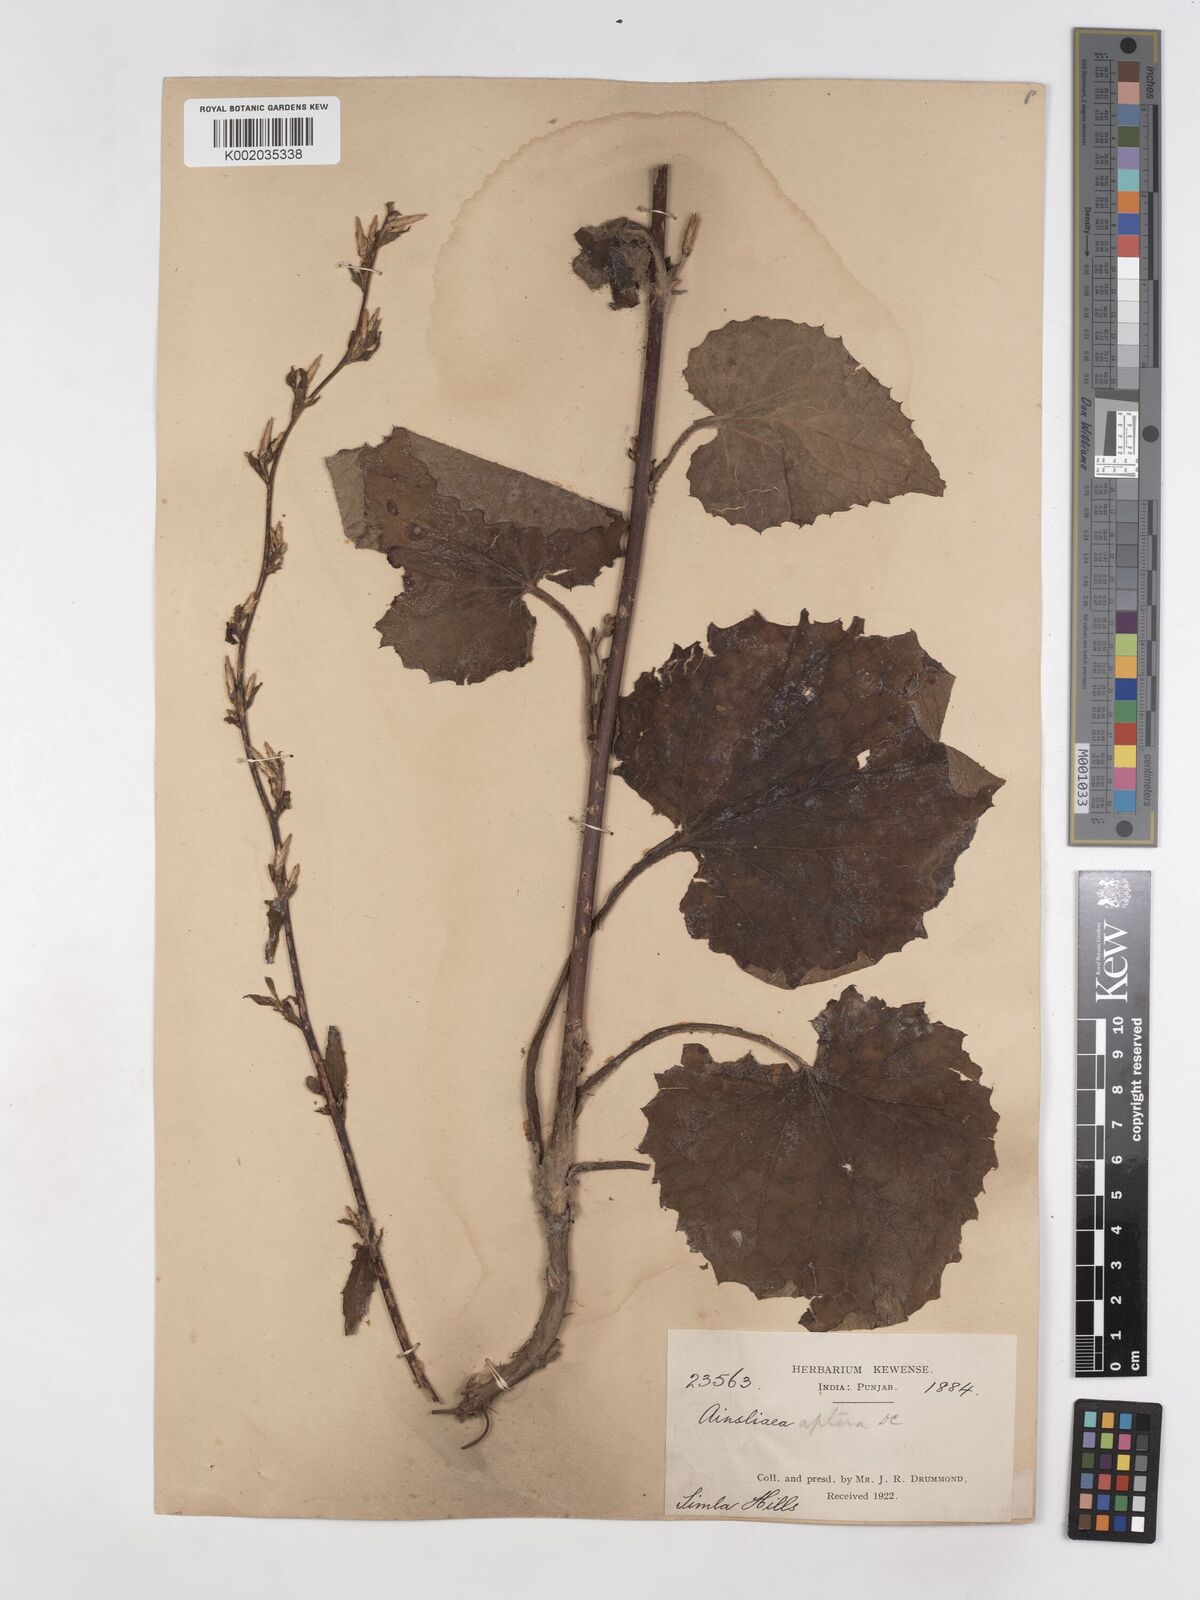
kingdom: Plantae
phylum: Tracheophyta
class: Magnoliopsida
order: Asterales
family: Asteraceae
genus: Ainsliaea
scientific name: Ainsliaea aptera
